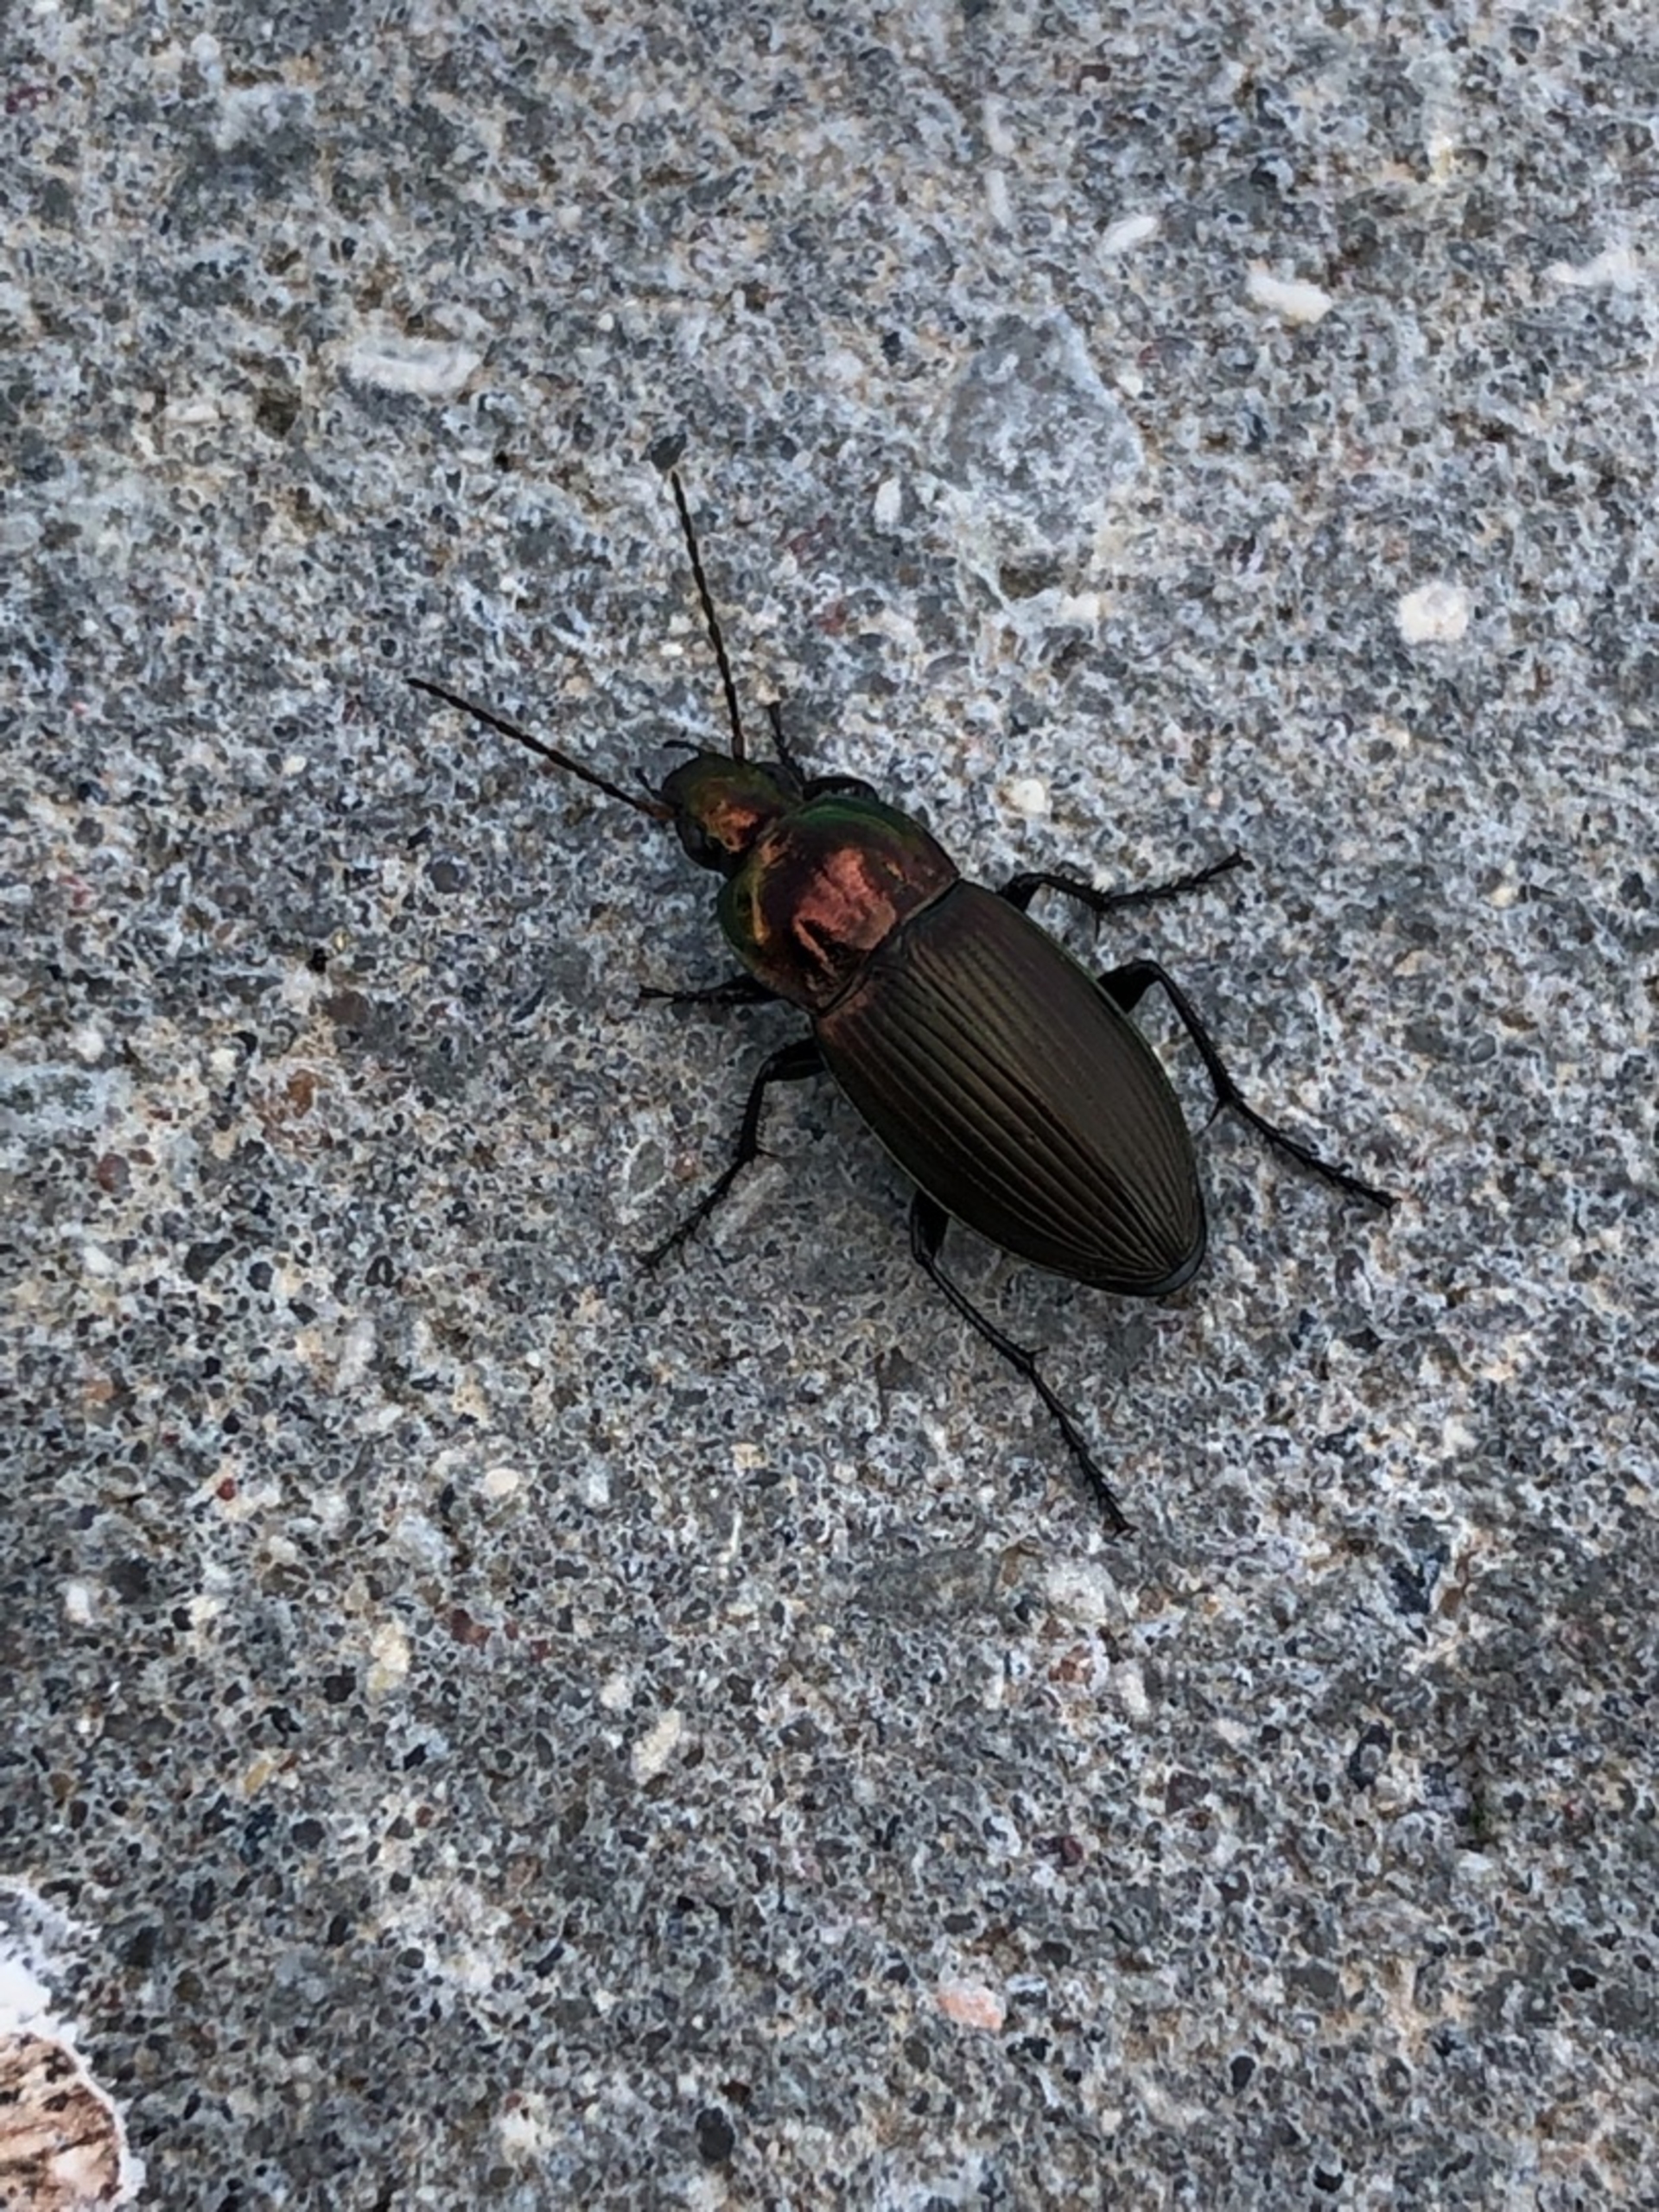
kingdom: Animalia
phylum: Arthropoda
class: Insecta
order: Coleoptera
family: Carabidae
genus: Poecilus
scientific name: Poecilus cupreus
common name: Bred metaljordløber
